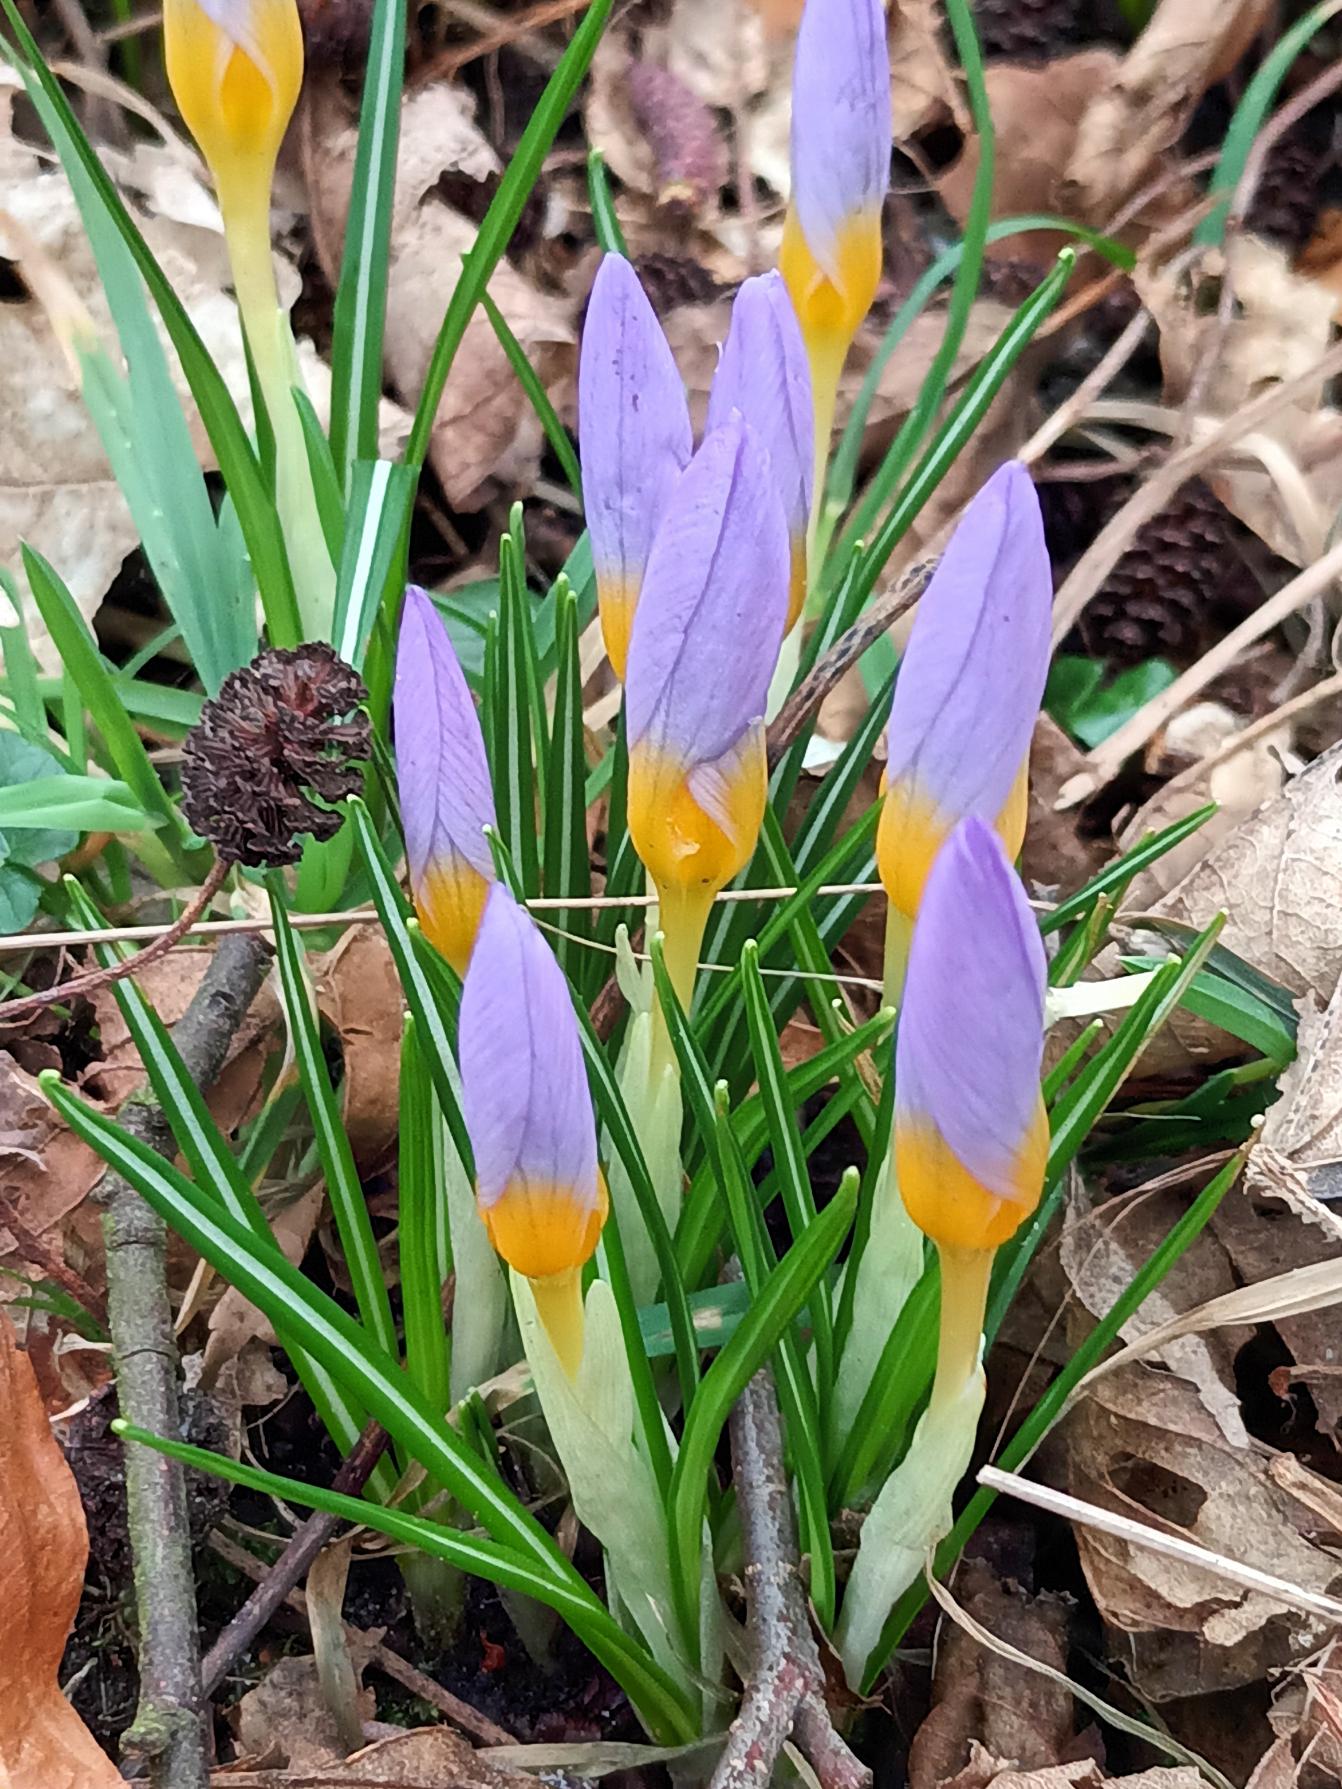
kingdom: Plantae
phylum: Tracheophyta
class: Liliopsida
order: Asparagales
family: Iridaceae
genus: Crocus
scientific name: Crocus sieberi
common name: Græsk krokus
